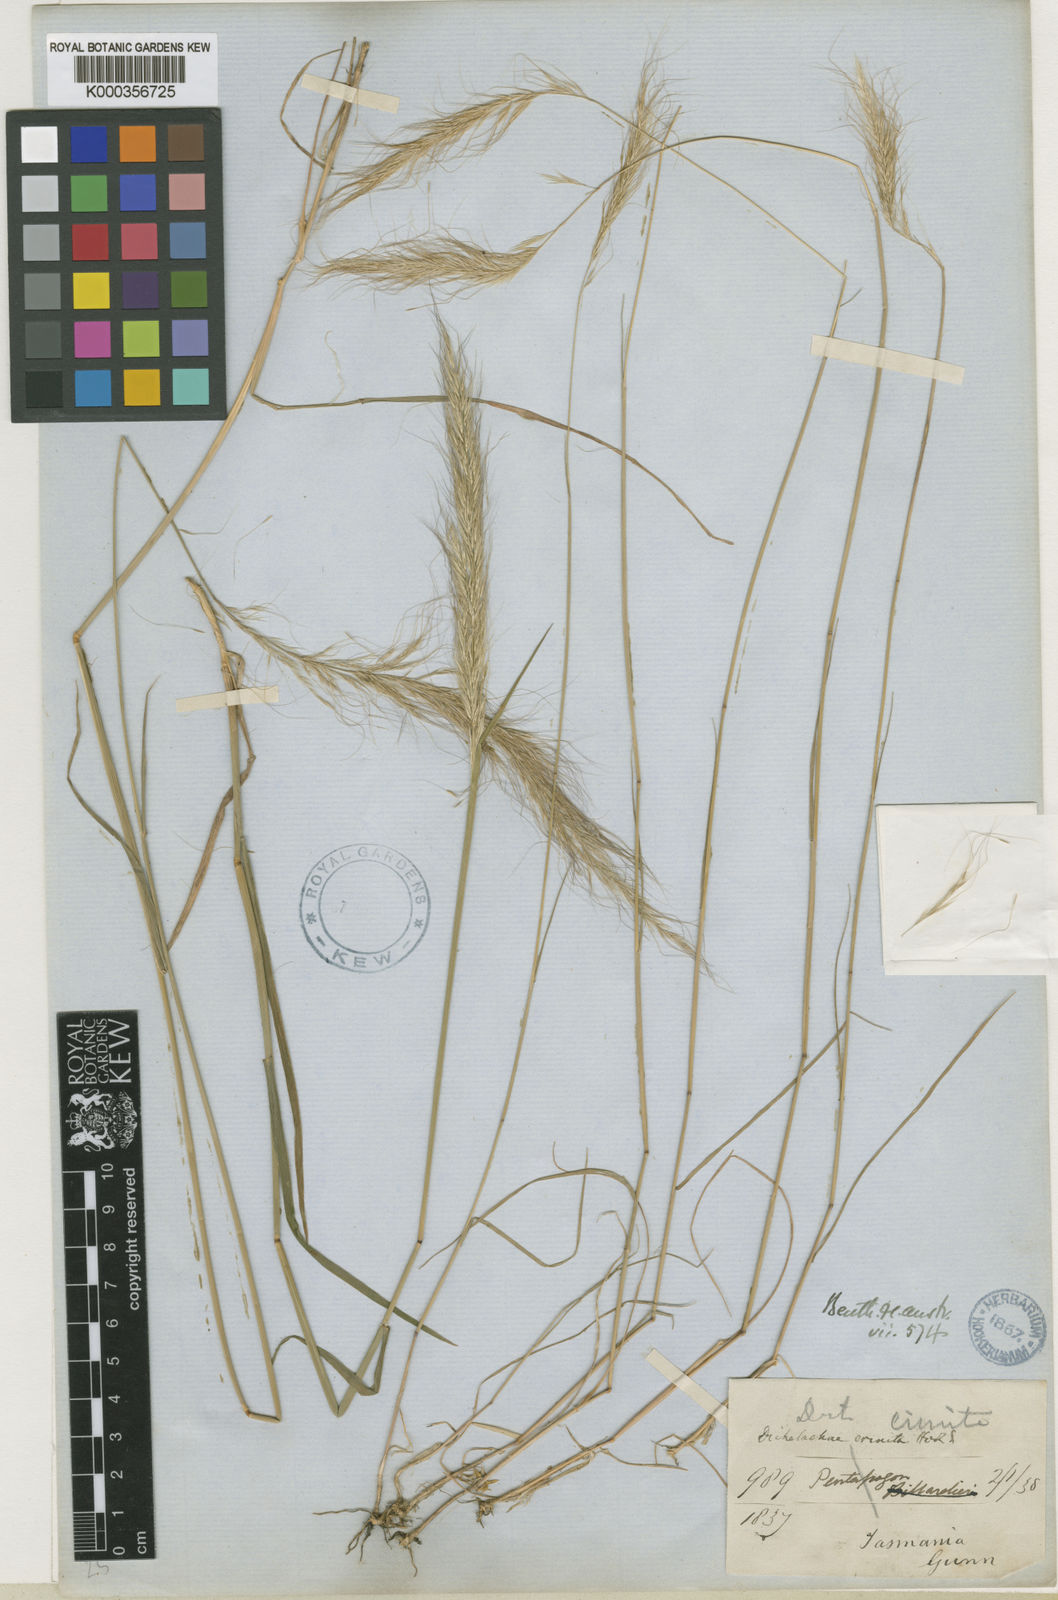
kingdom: Plantae
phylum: Tracheophyta
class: Liliopsida
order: Poales
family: Poaceae
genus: Dichelachne
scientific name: Dichelachne crinita
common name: Clovenfoot plumegrass
